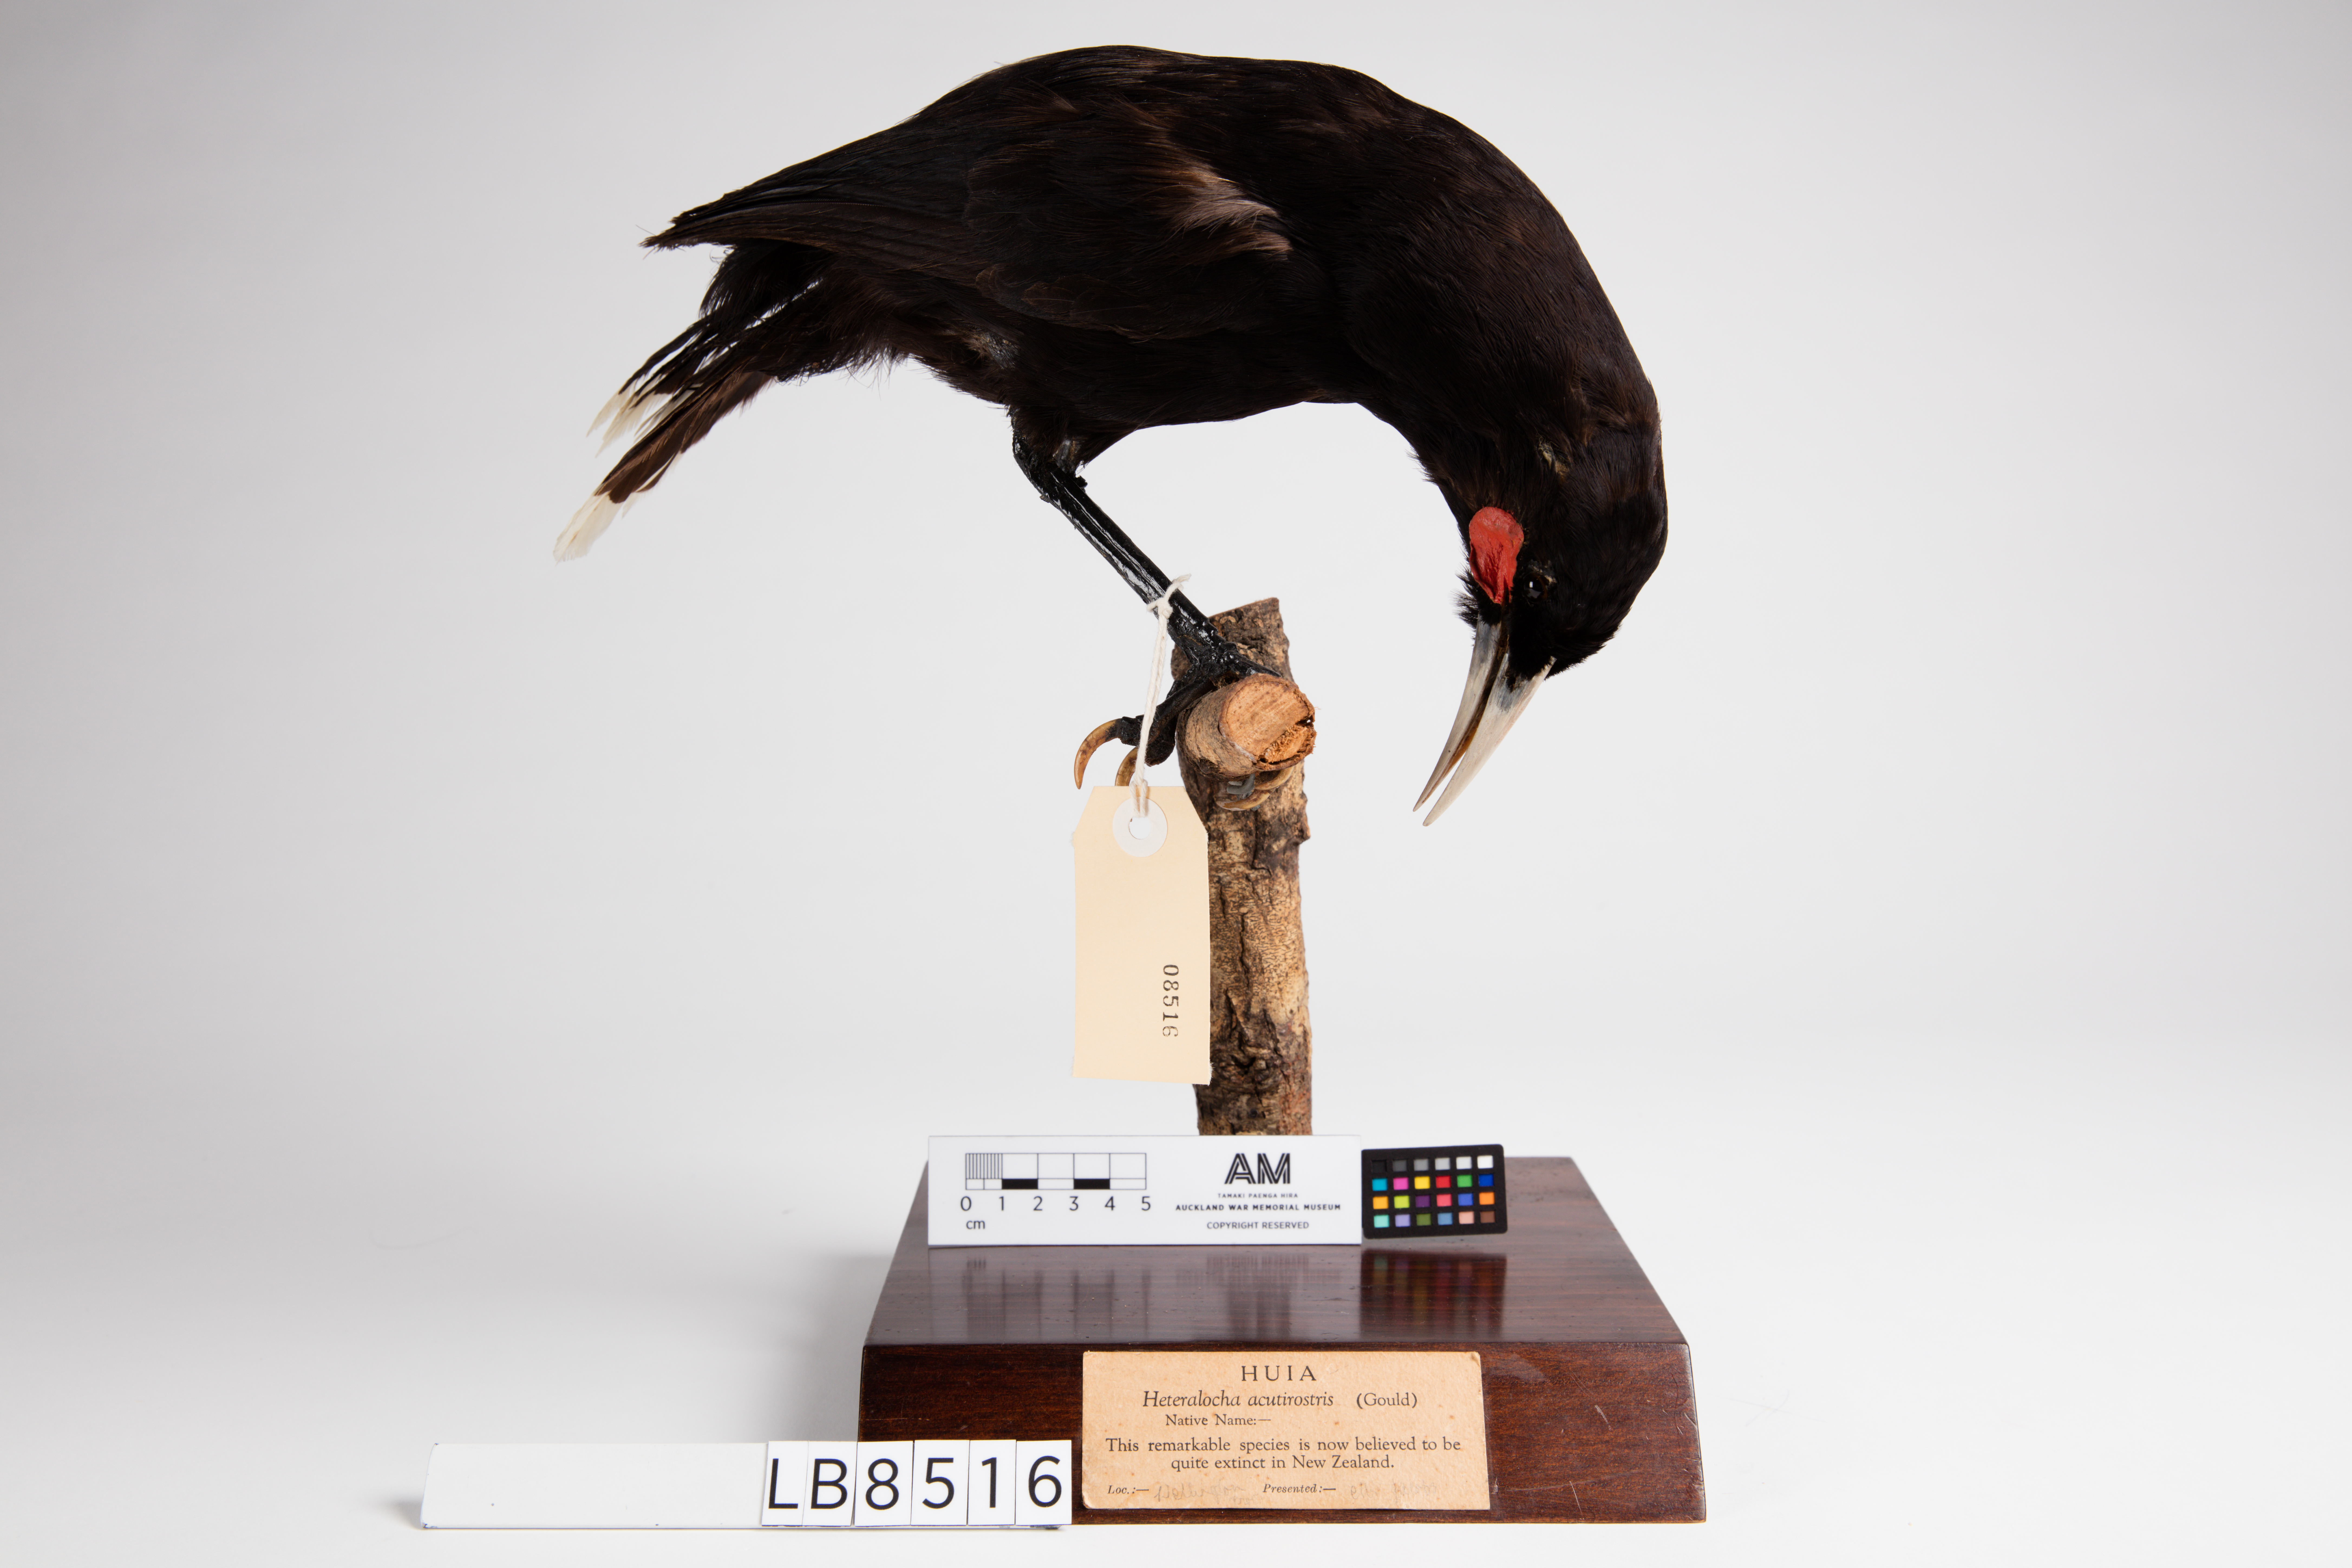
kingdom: Animalia
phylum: Chordata
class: Aves
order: Passeriformes
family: Callaeatidae
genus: Heteralocha
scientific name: Heteralocha acutirostris
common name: Huia
